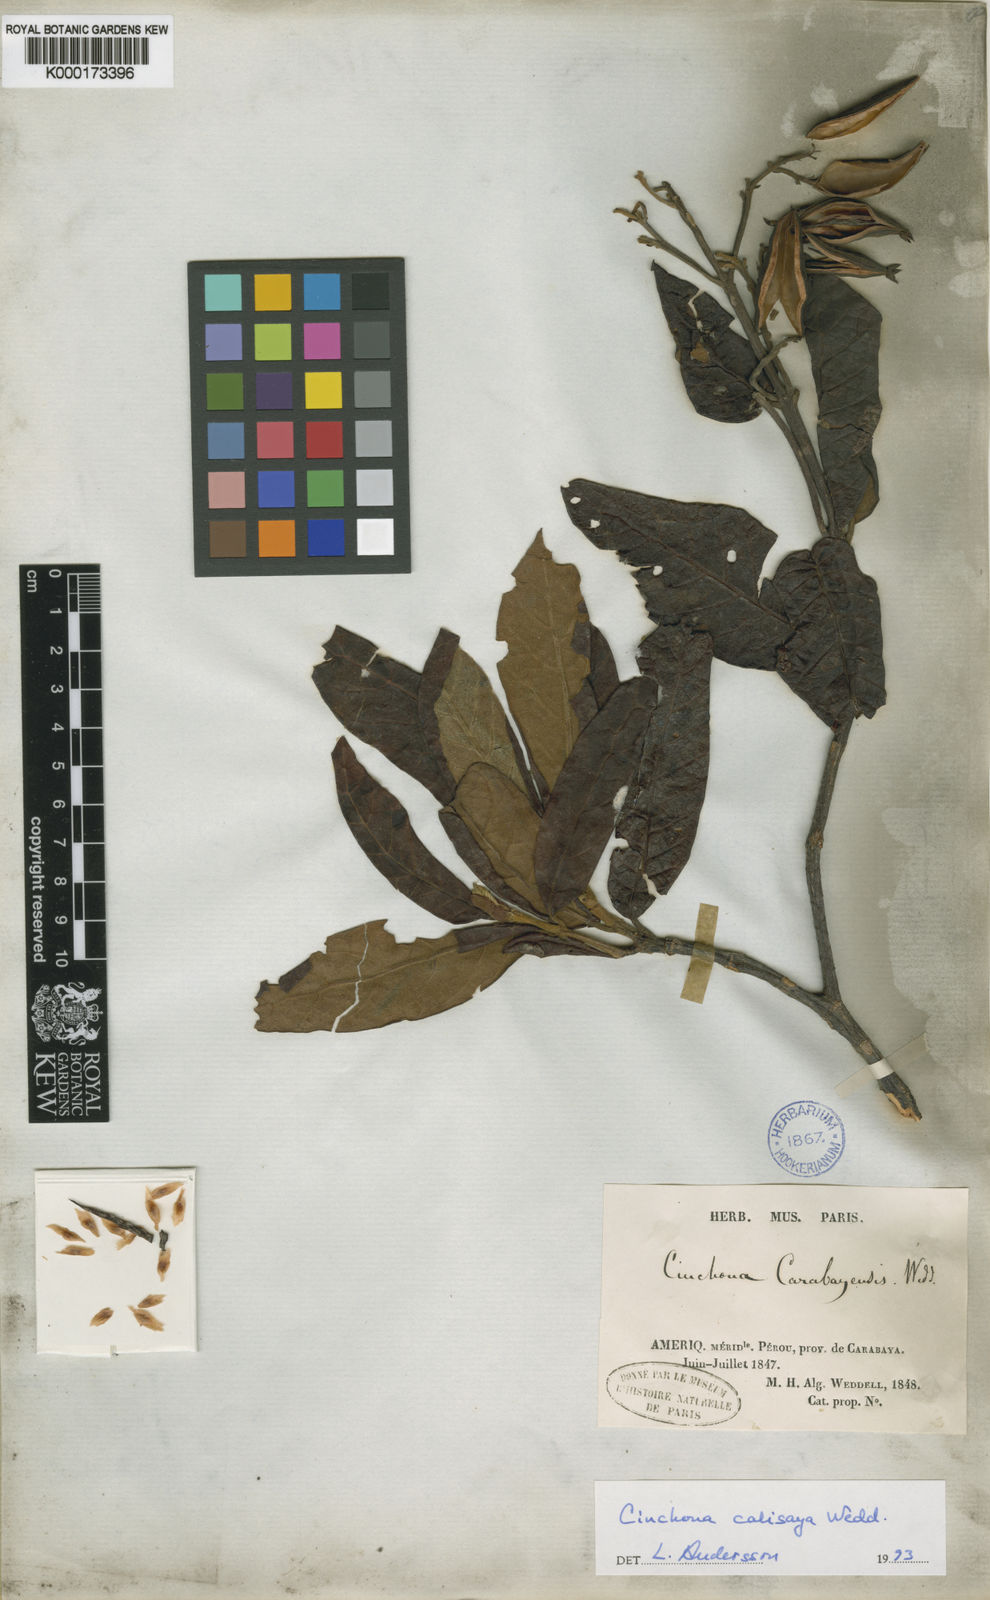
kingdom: Plantae
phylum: Tracheophyta
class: Magnoliopsida
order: Gentianales
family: Rubiaceae
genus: Cinchona
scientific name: Cinchona calisaya
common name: Ledgerbark
